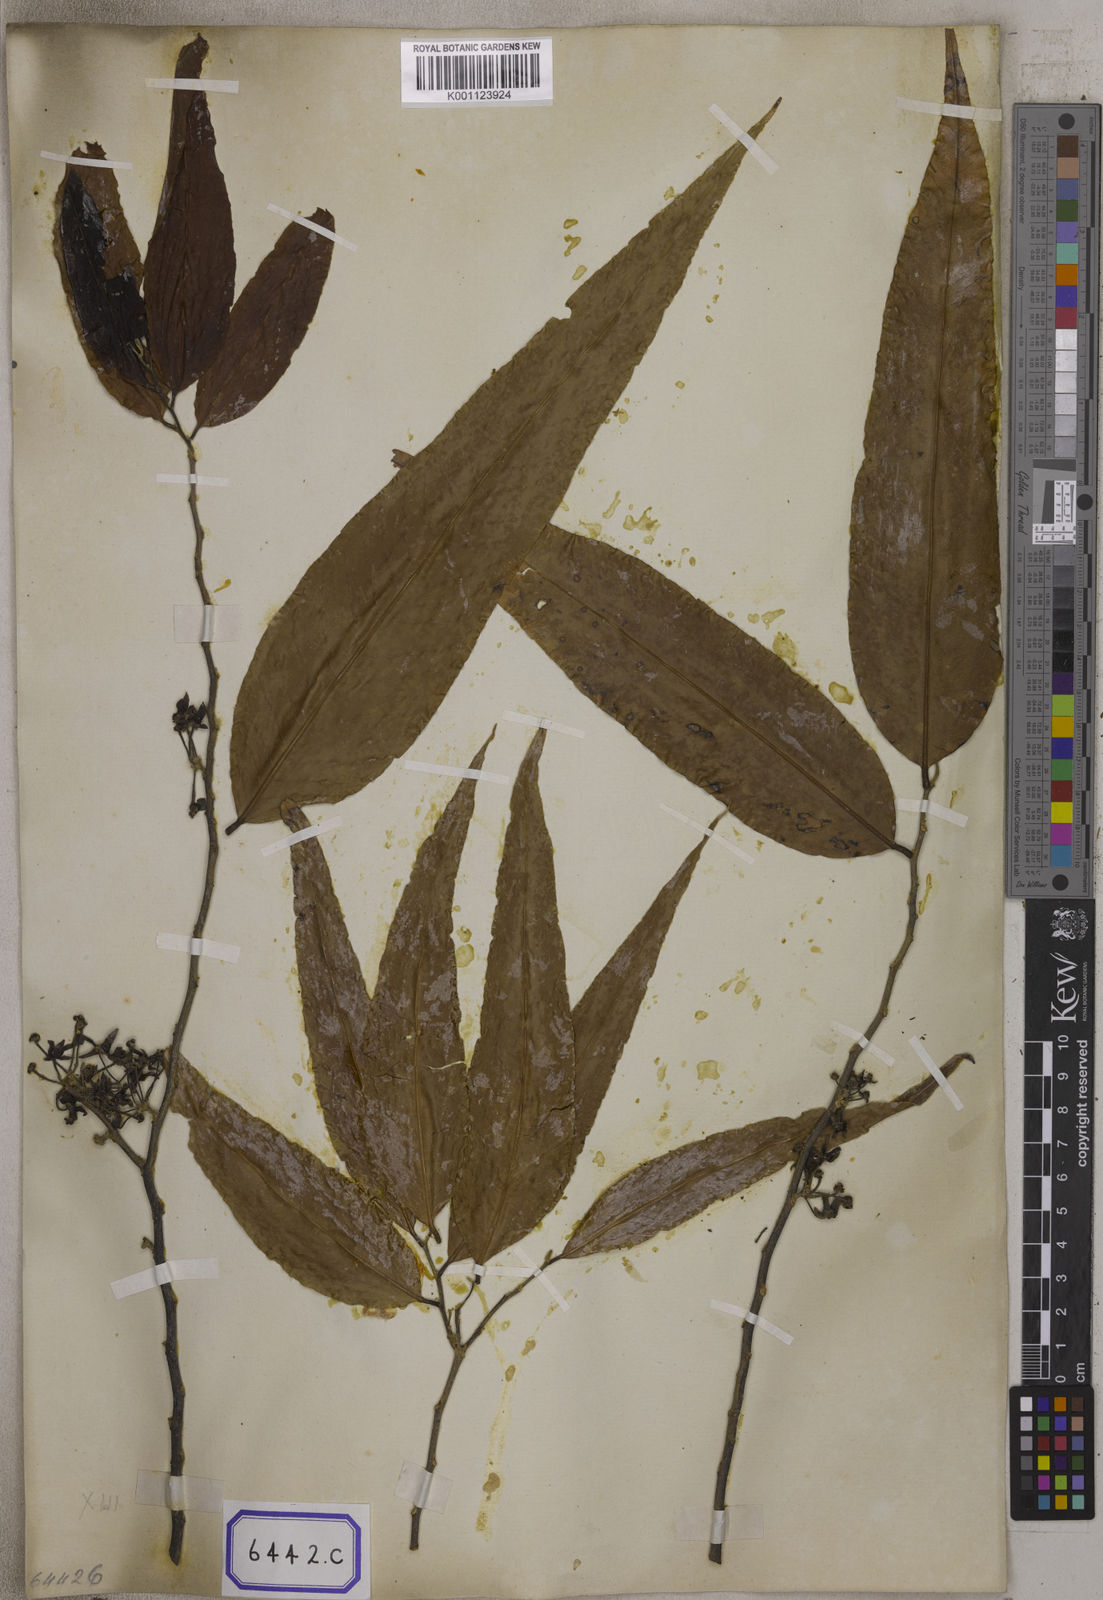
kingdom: Plantae
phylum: Tracheophyta
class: Magnoliopsida
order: Magnoliales
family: Annonaceae
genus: Polyalthia
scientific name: Polyalthia longifolia
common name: Cemetery-tree
